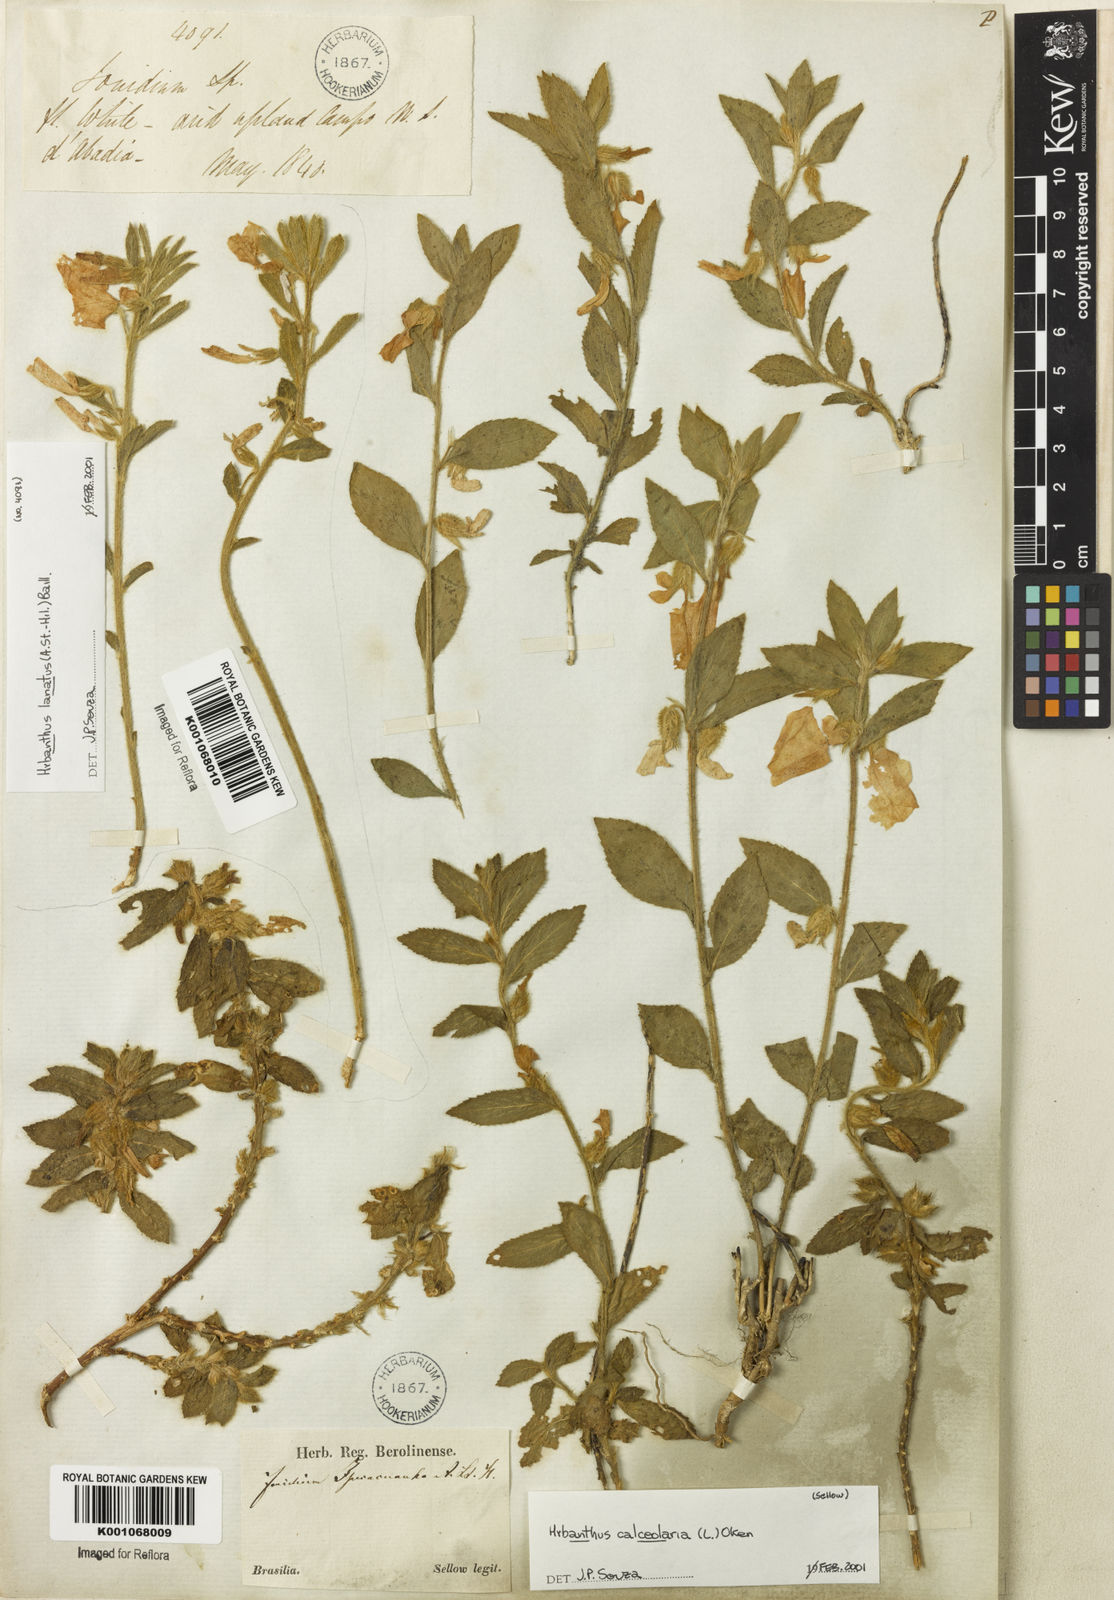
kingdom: Plantae
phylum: Tracheophyta
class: Magnoliopsida
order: Malpighiales
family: Violaceae
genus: Hybanthus
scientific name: Hybanthus
